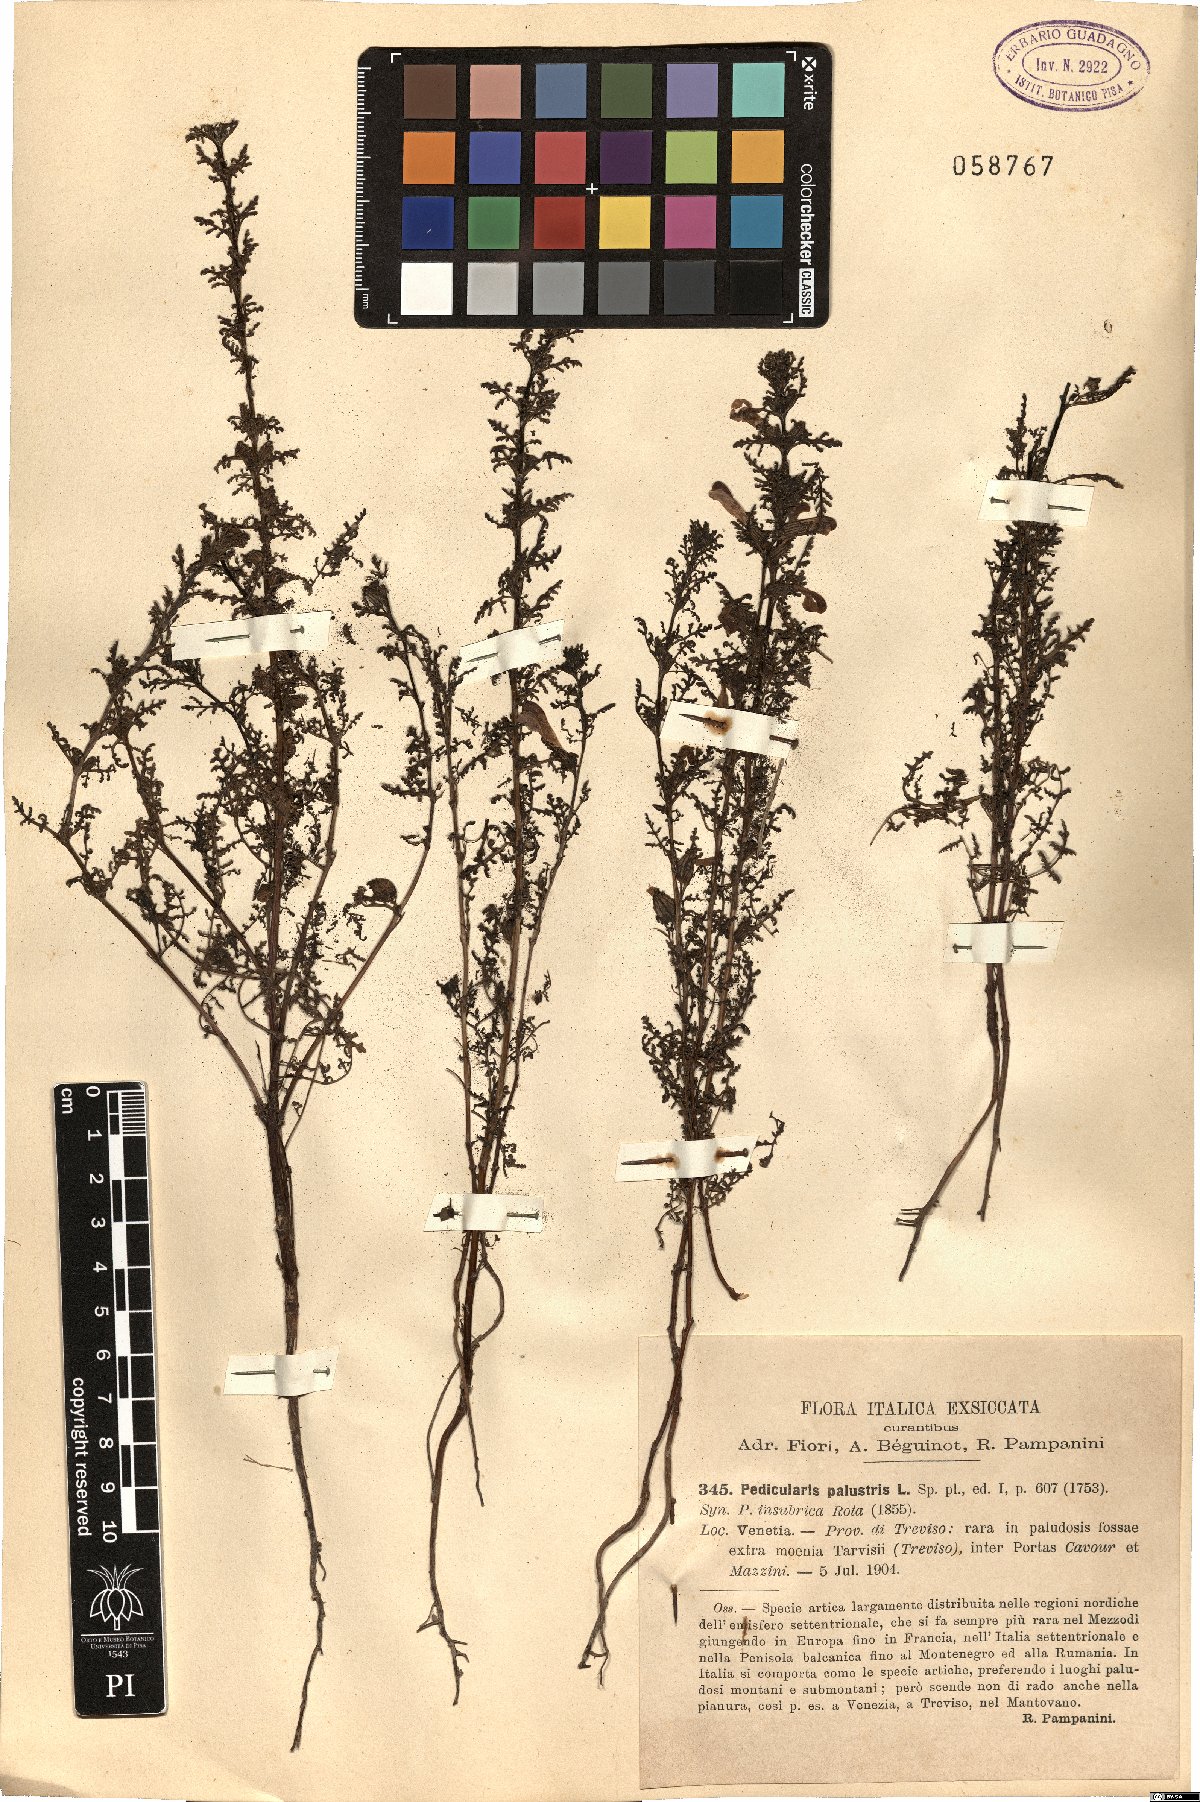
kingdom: Plantae
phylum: Tracheophyta
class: Magnoliopsida
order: Lamiales
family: Orobanchaceae
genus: Pedicularis
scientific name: Pedicularis palustris
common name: Marsh lousewort
